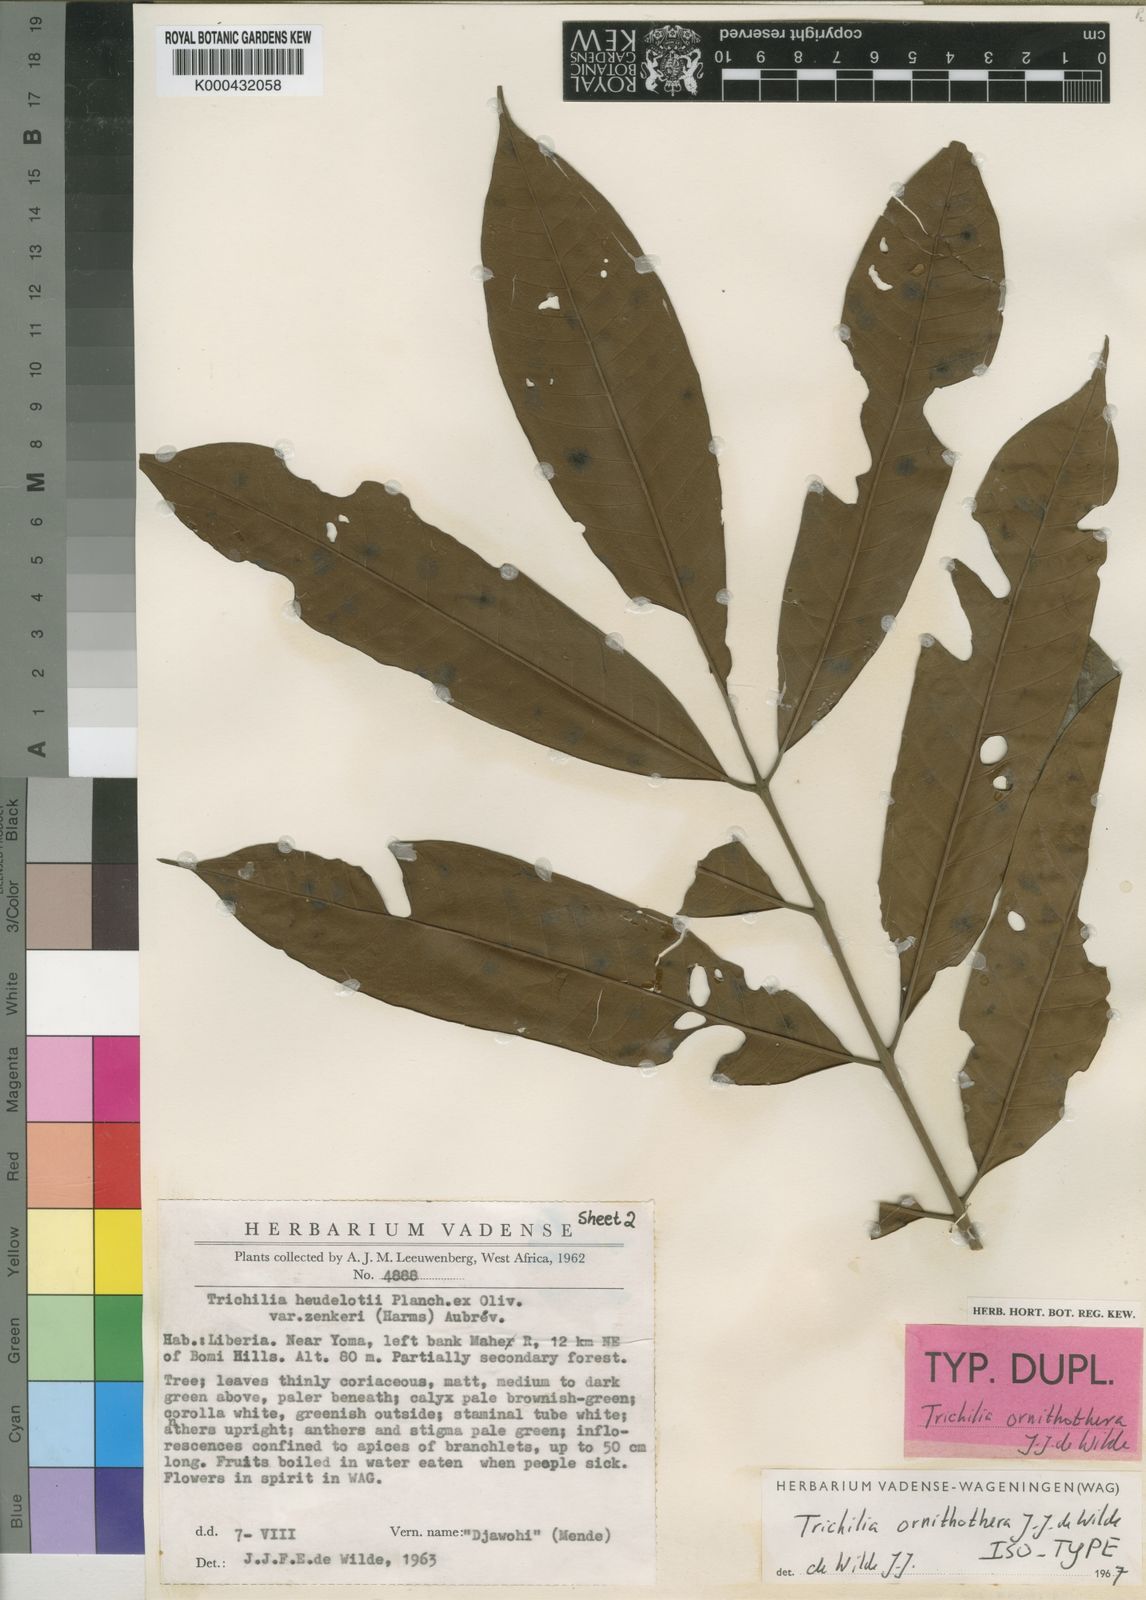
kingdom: Plantae
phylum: Tracheophyta
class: Magnoliopsida
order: Sapindales
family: Meliaceae
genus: Trichilia
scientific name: Trichilia ornithothera
